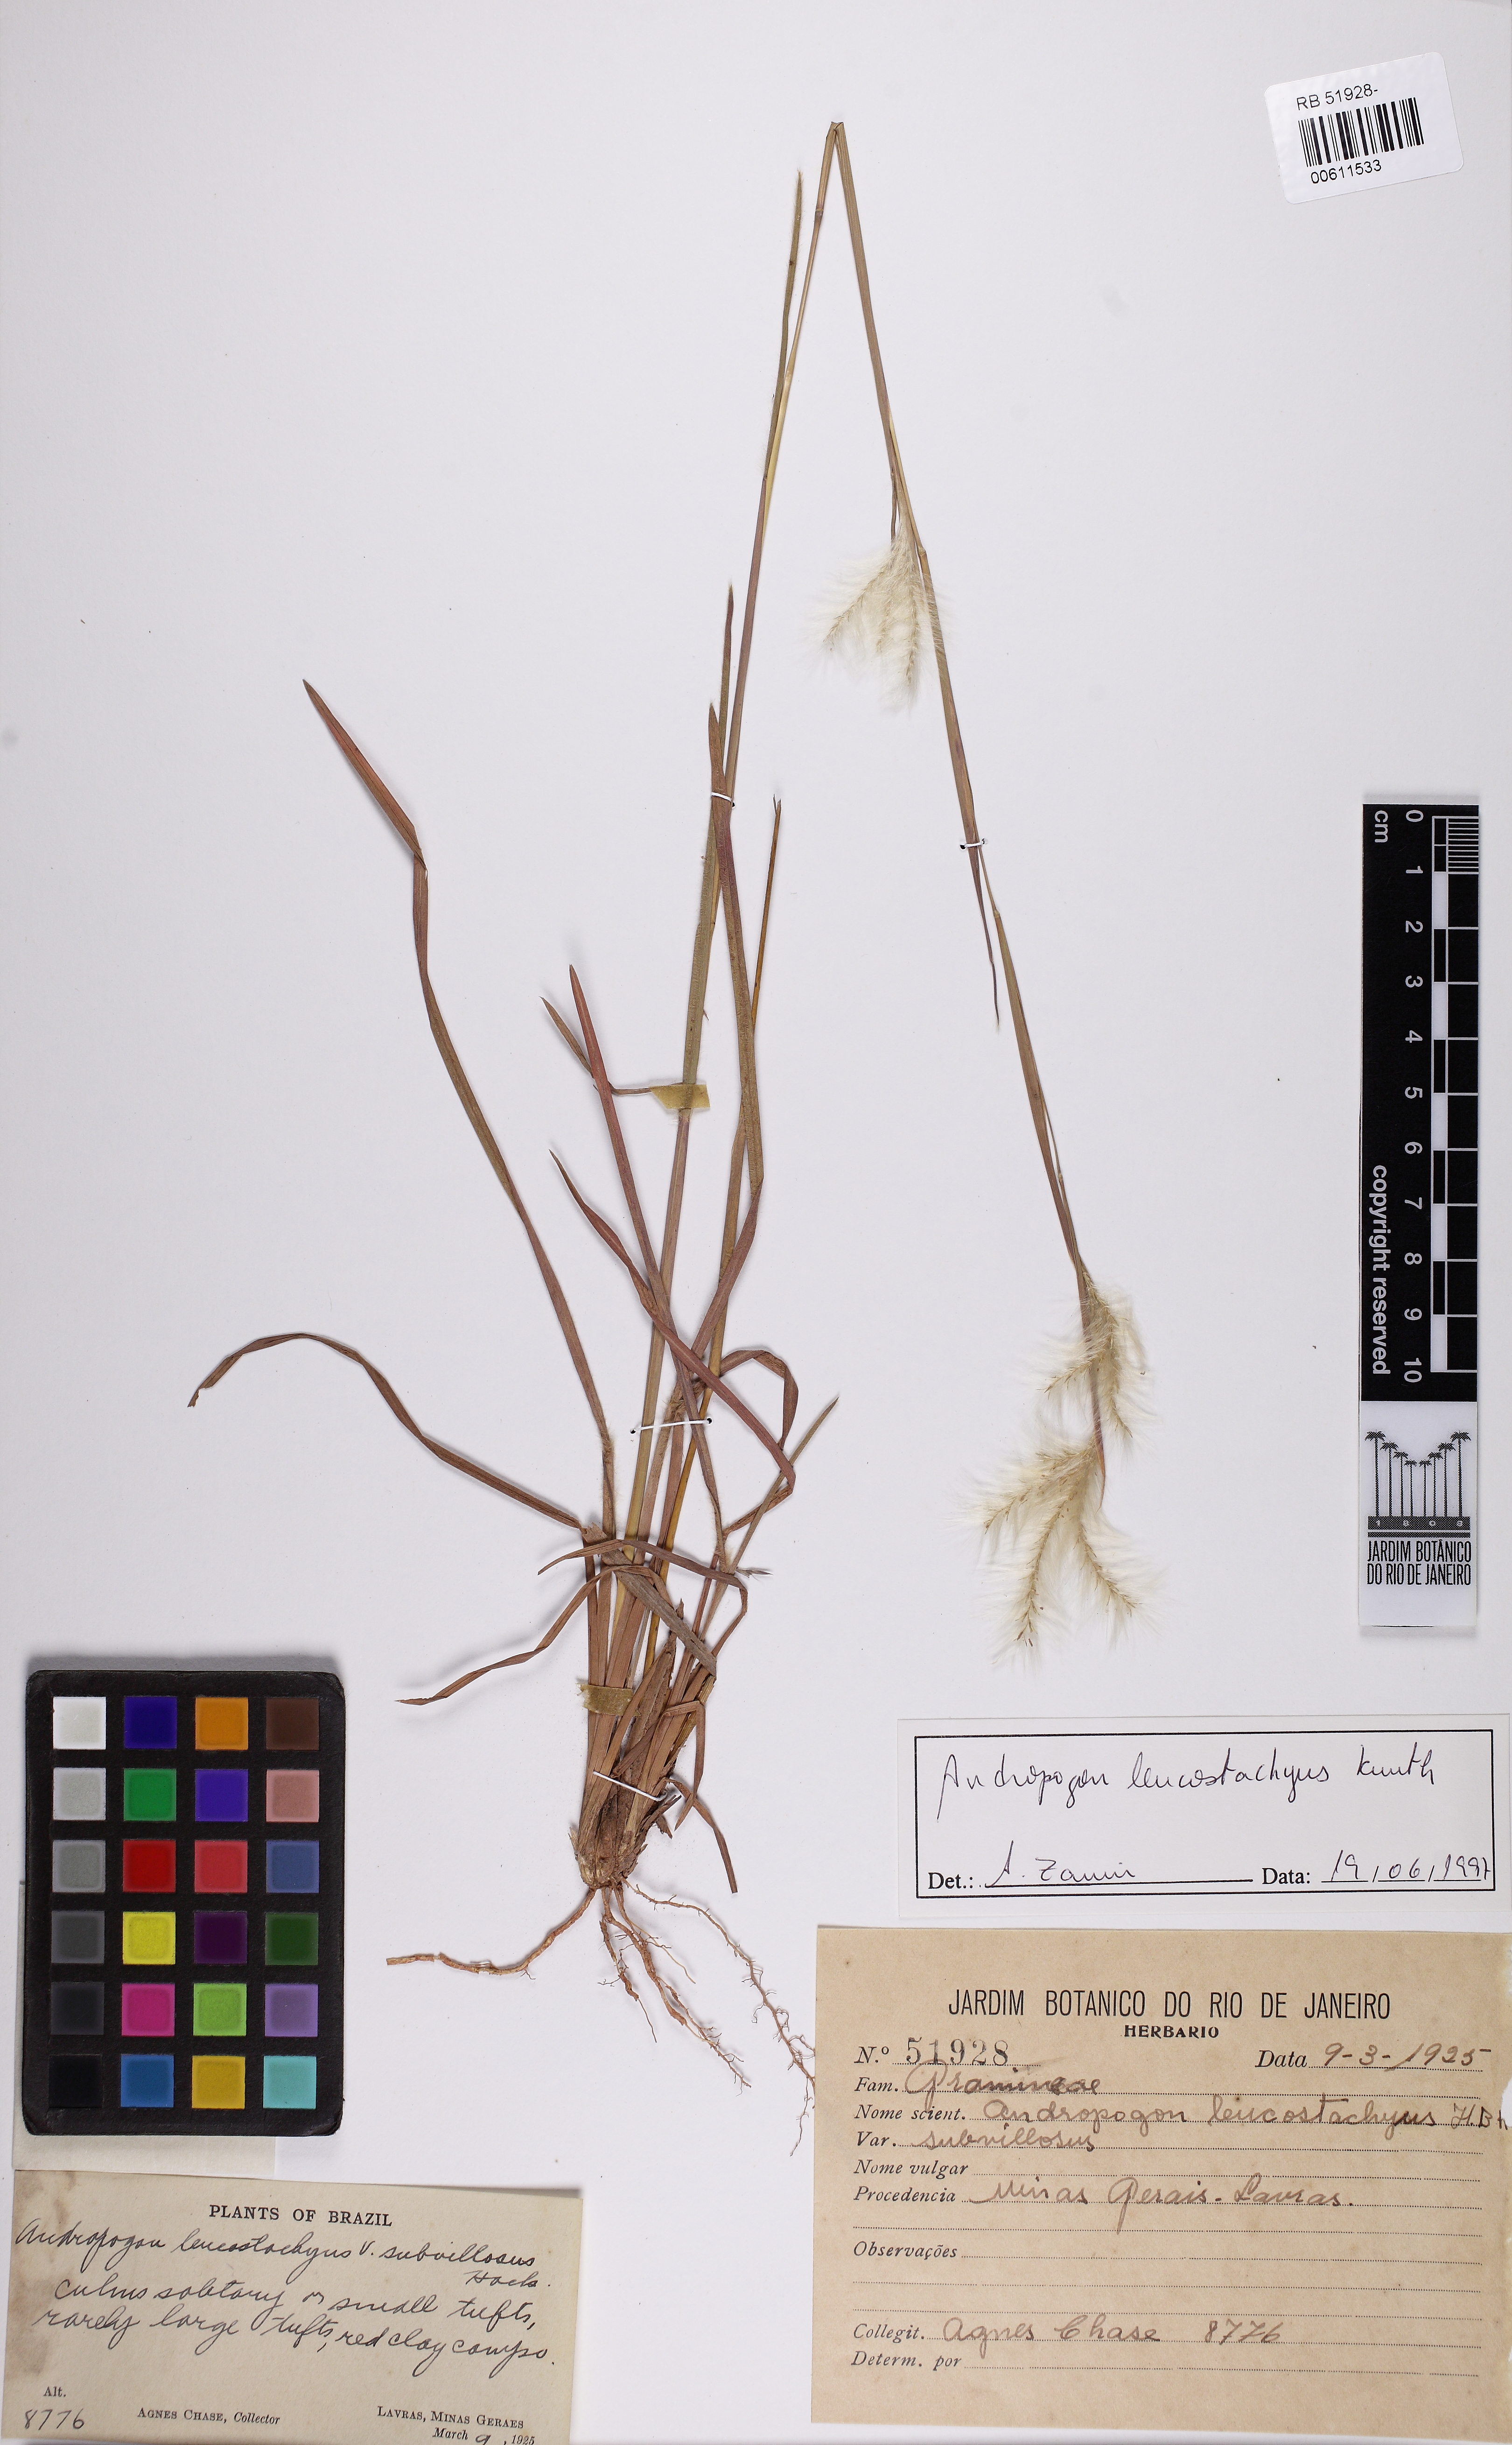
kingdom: Plantae
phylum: Tracheophyta
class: Liliopsida
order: Poales
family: Poaceae
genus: Andropogon
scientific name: Andropogon leucostachyus
